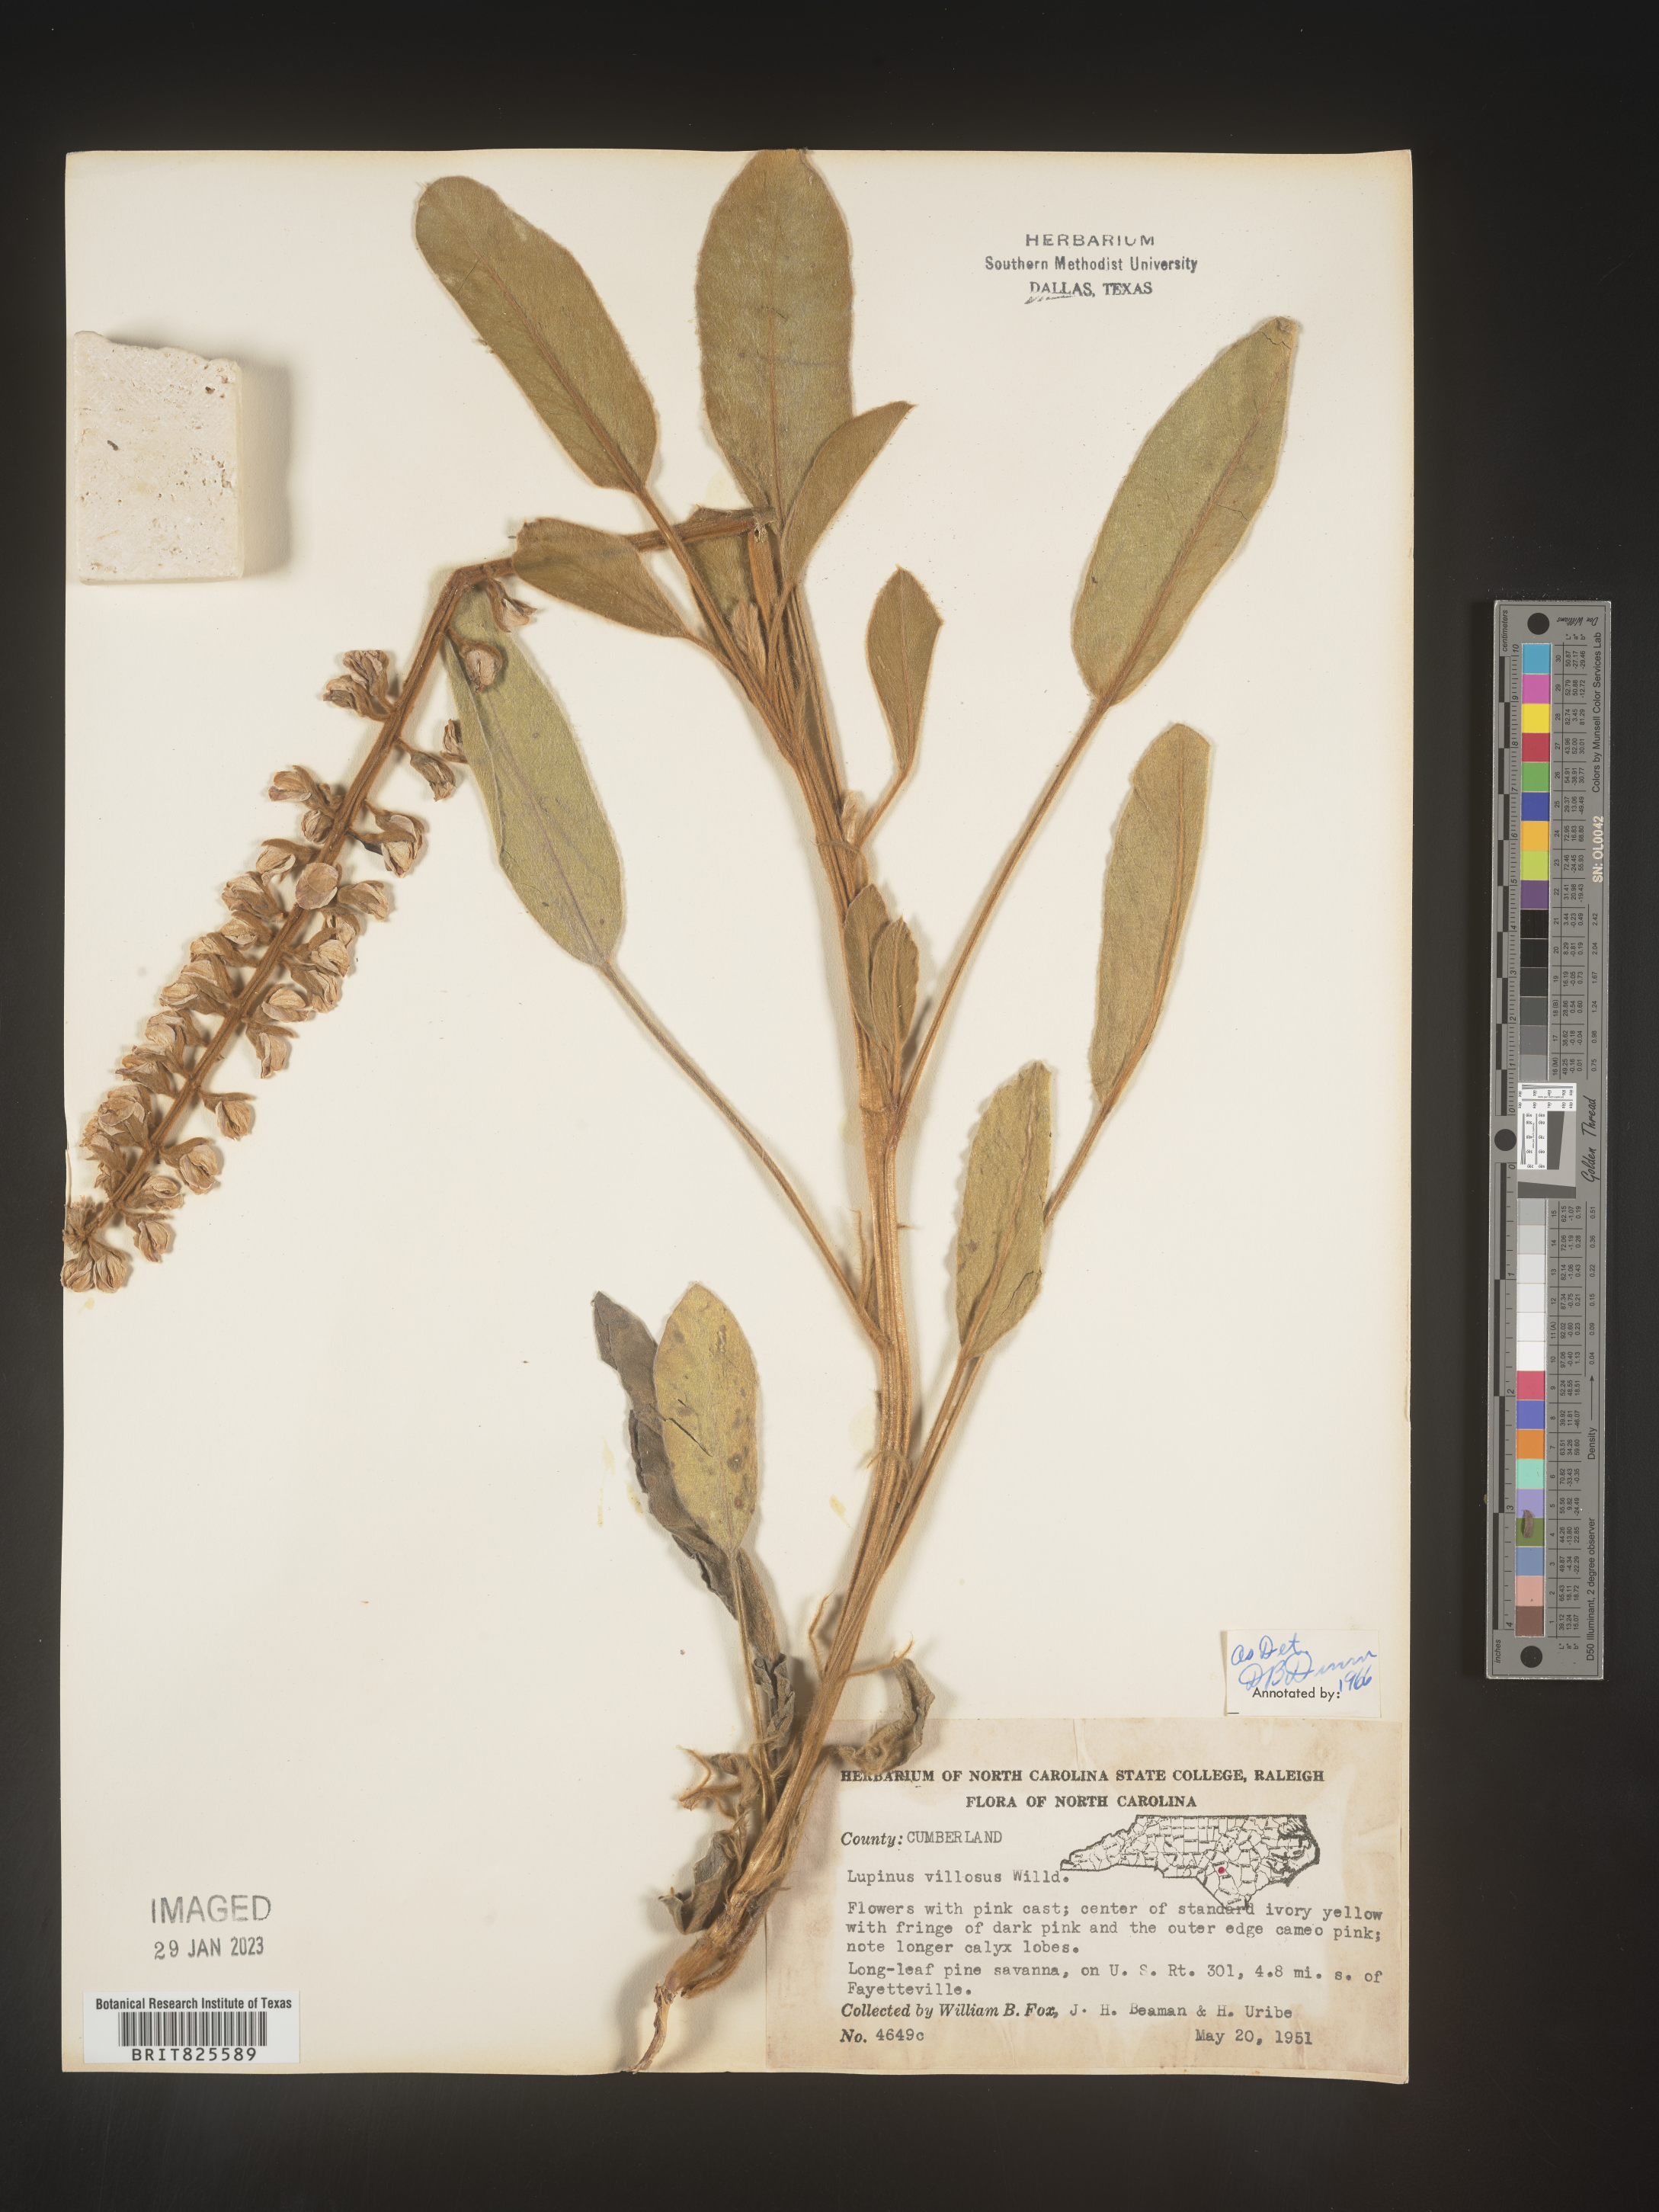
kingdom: Plantae
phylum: Tracheophyta
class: Magnoliopsida
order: Fabales
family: Fabaceae
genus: Lupinus
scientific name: Lupinus villosus
